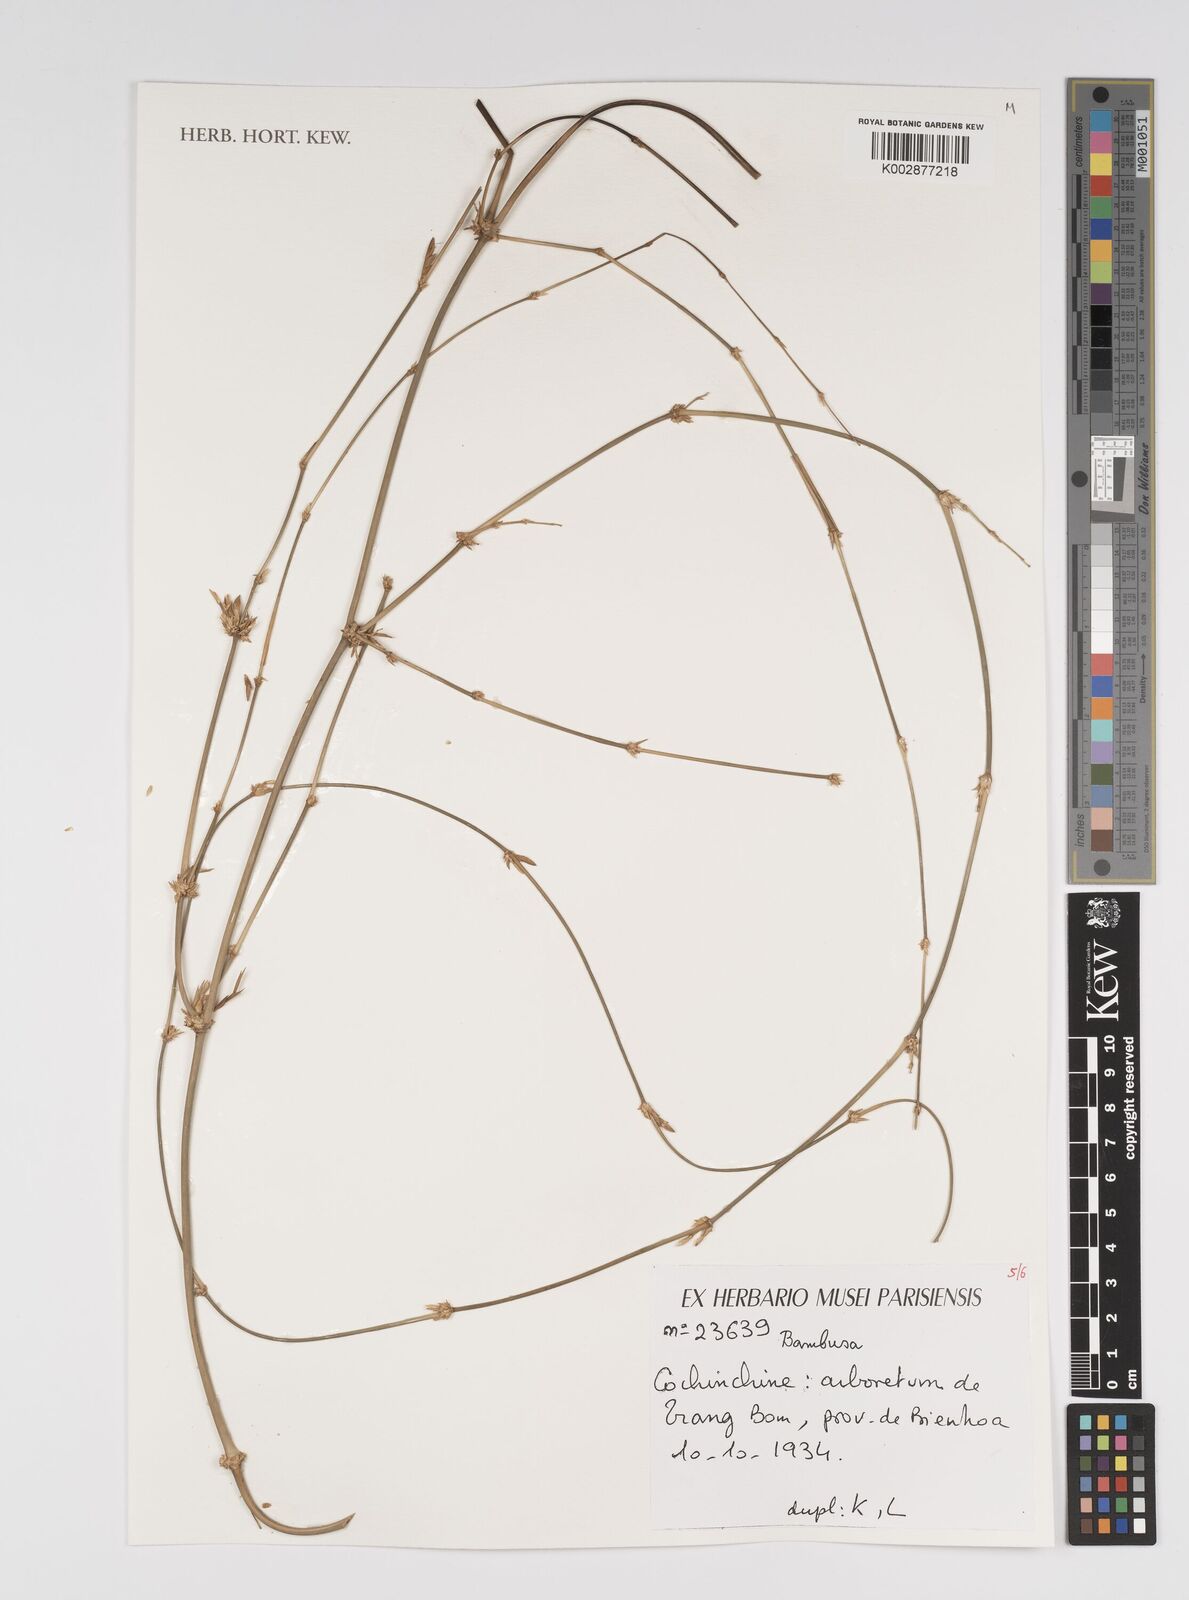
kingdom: Plantae
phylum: Tracheophyta
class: Liliopsida
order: Poales
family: Poaceae
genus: Bambusa
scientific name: Bambusa
